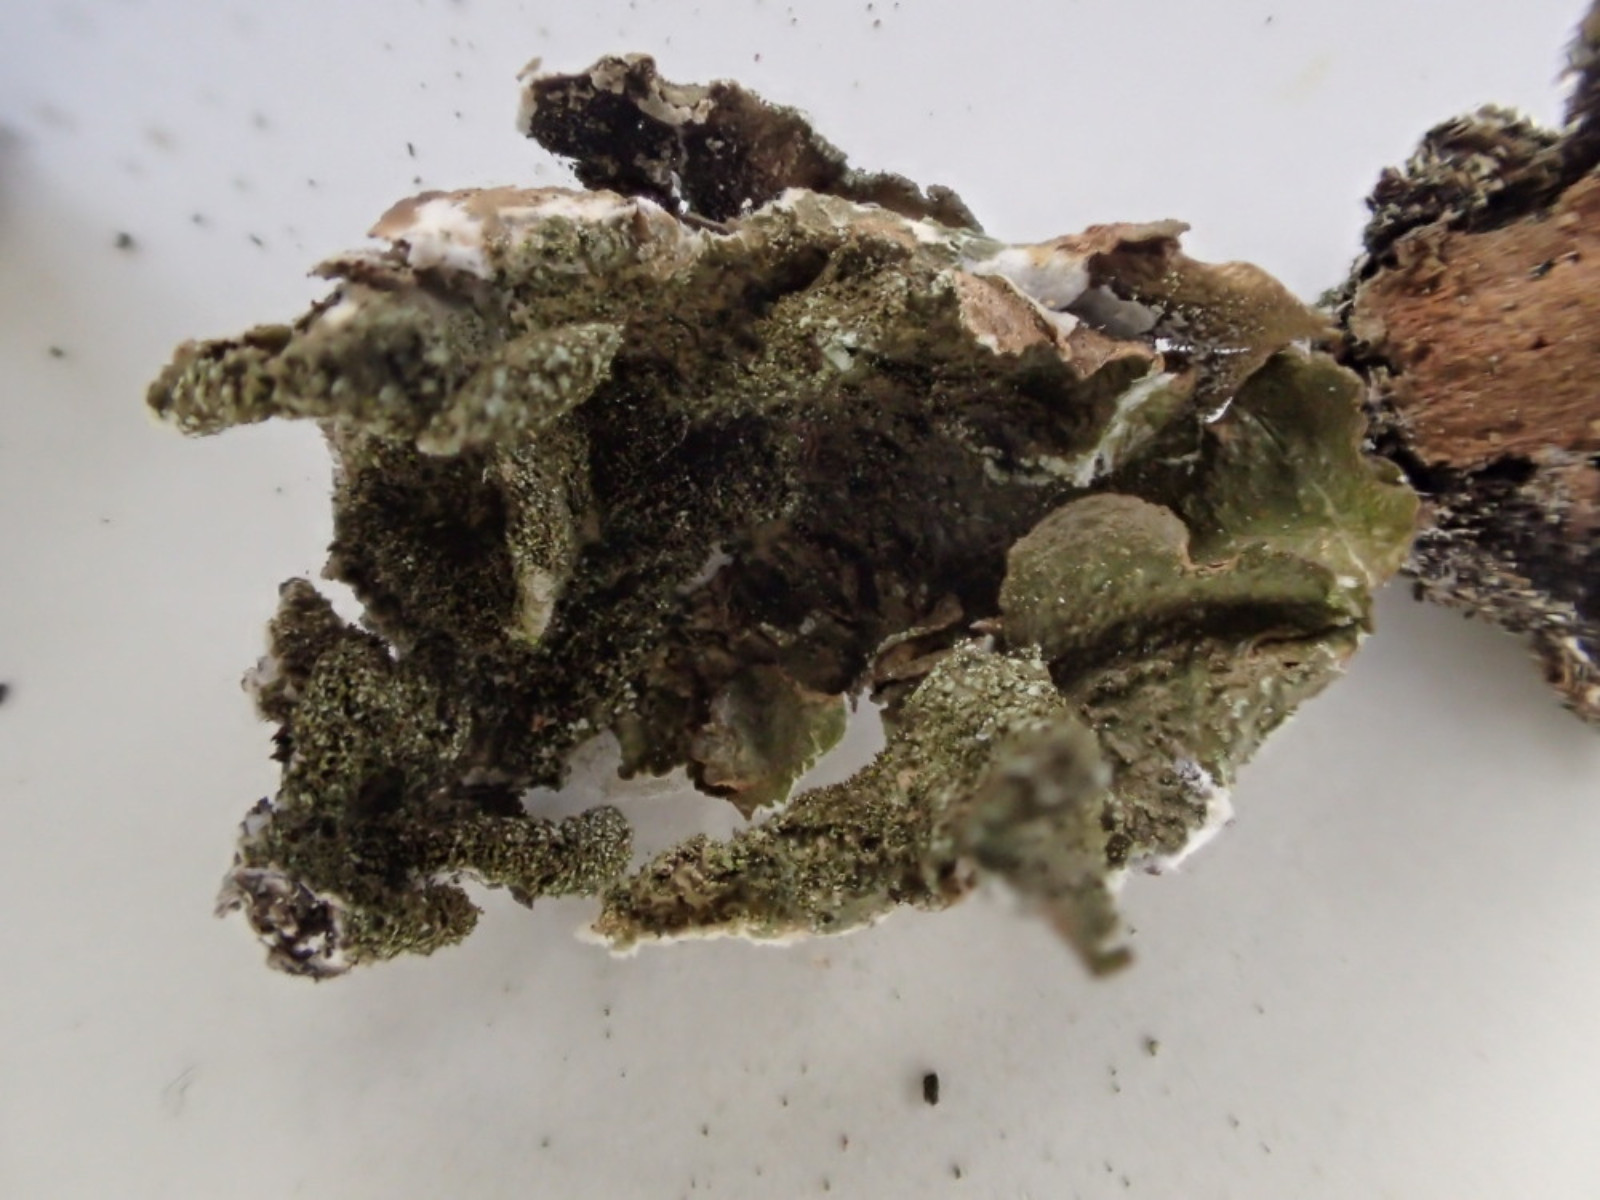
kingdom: Fungi
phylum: Ascomycota
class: Lecanoromycetes
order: Lecanorales
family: Parmeliaceae
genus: Melanohalea
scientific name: Melanohalea exasperatula
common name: kølle-skållav
